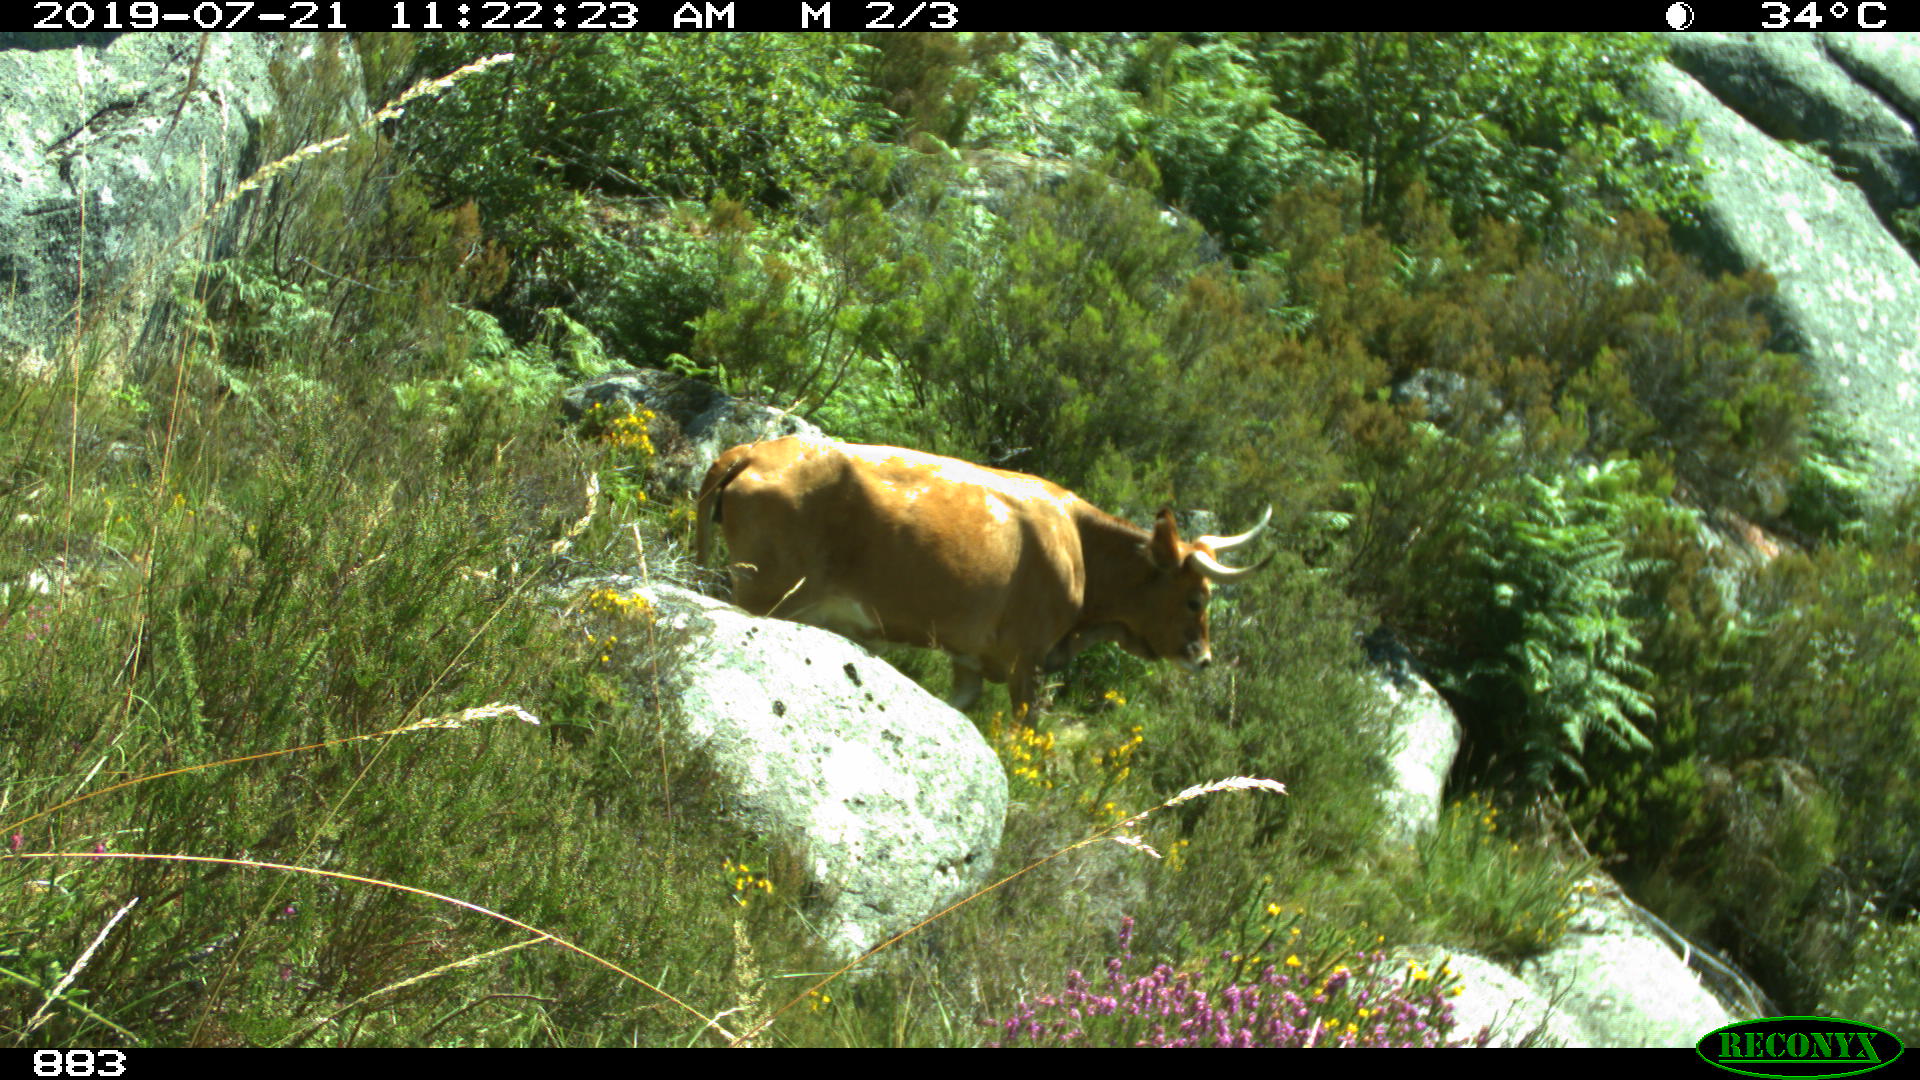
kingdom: Animalia
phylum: Chordata
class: Mammalia
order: Artiodactyla
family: Bovidae
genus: Bos
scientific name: Bos taurus
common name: Domesticated cattle
